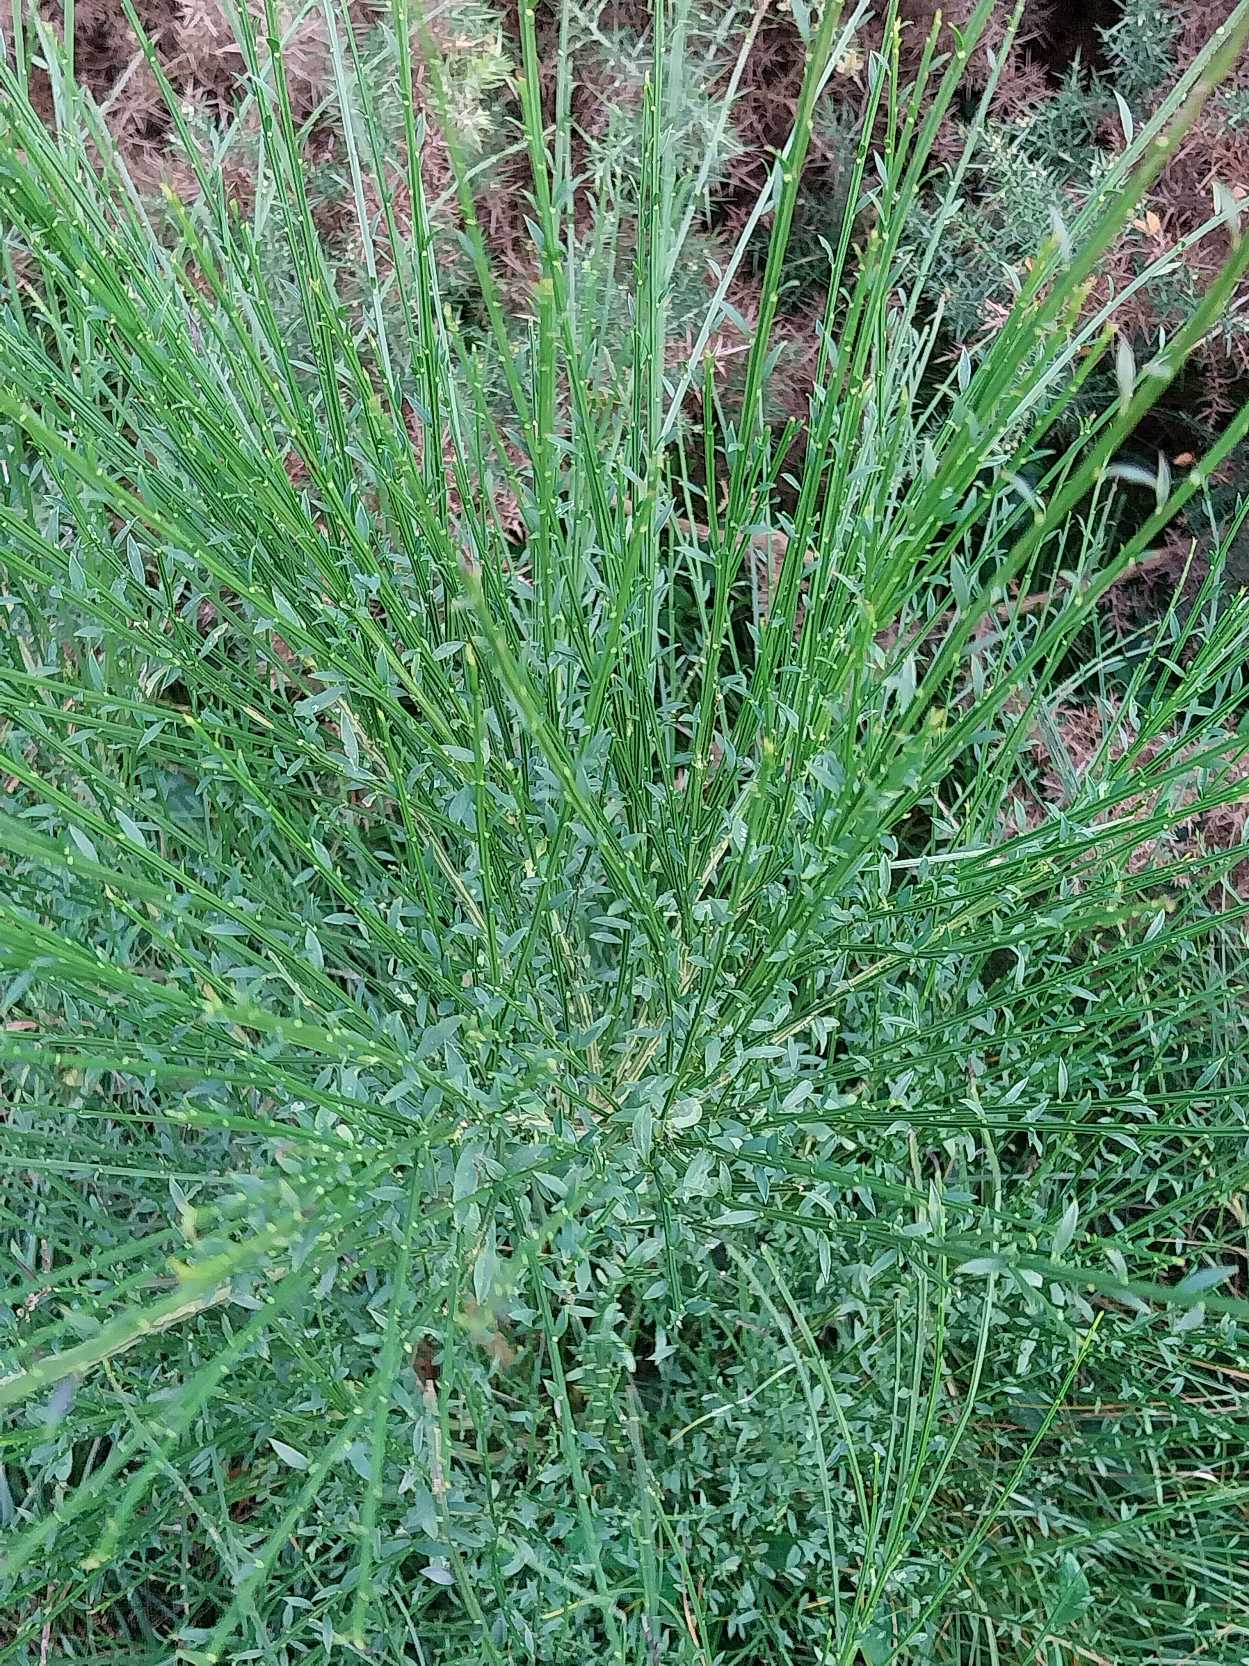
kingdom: Plantae
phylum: Tracheophyta
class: Magnoliopsida
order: Fabales
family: Fabaceae
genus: Cytisus
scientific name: Cytisus scoparius
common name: Almindelig gyvel
